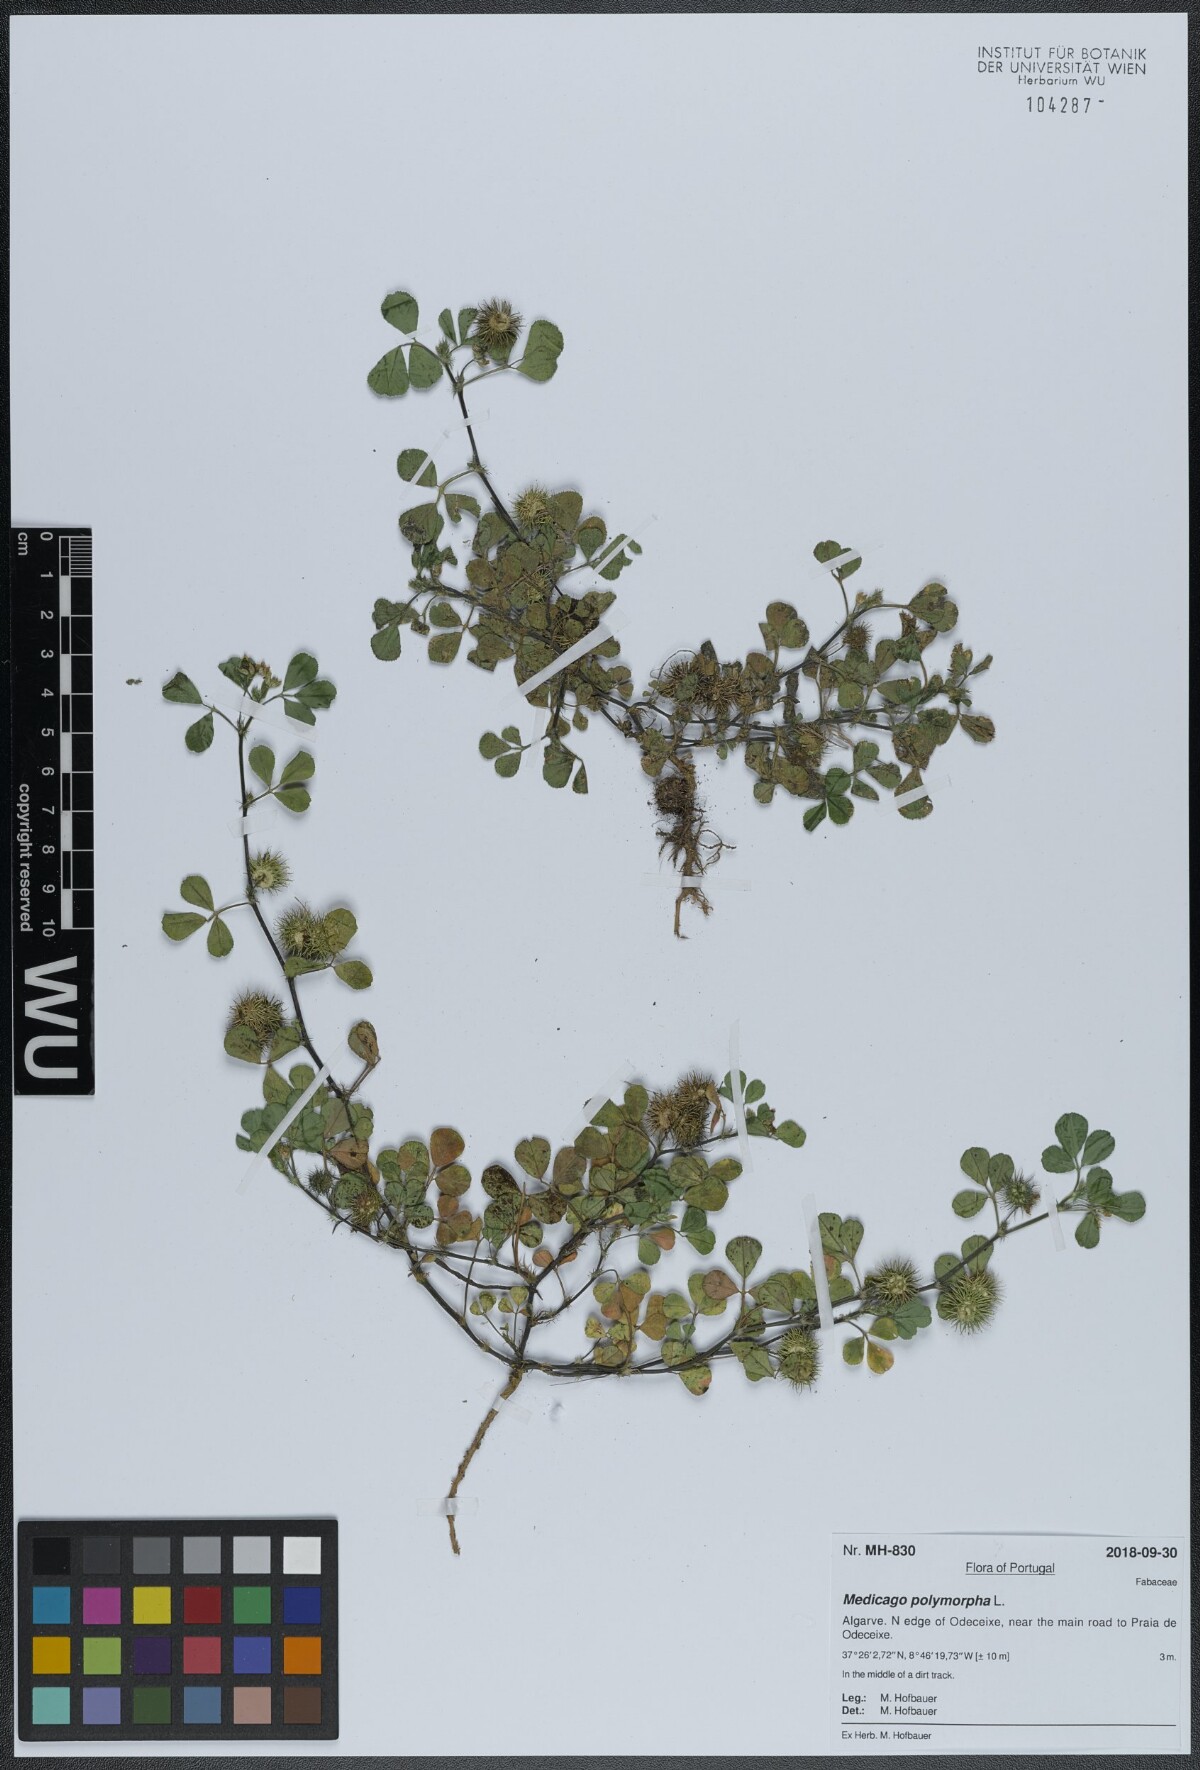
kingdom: Plantae
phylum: Tracheophyta
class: Magnoliopsida
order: Fabales
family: Fabaceae
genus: Medicago
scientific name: Medicago polymorpha
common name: Burclover
